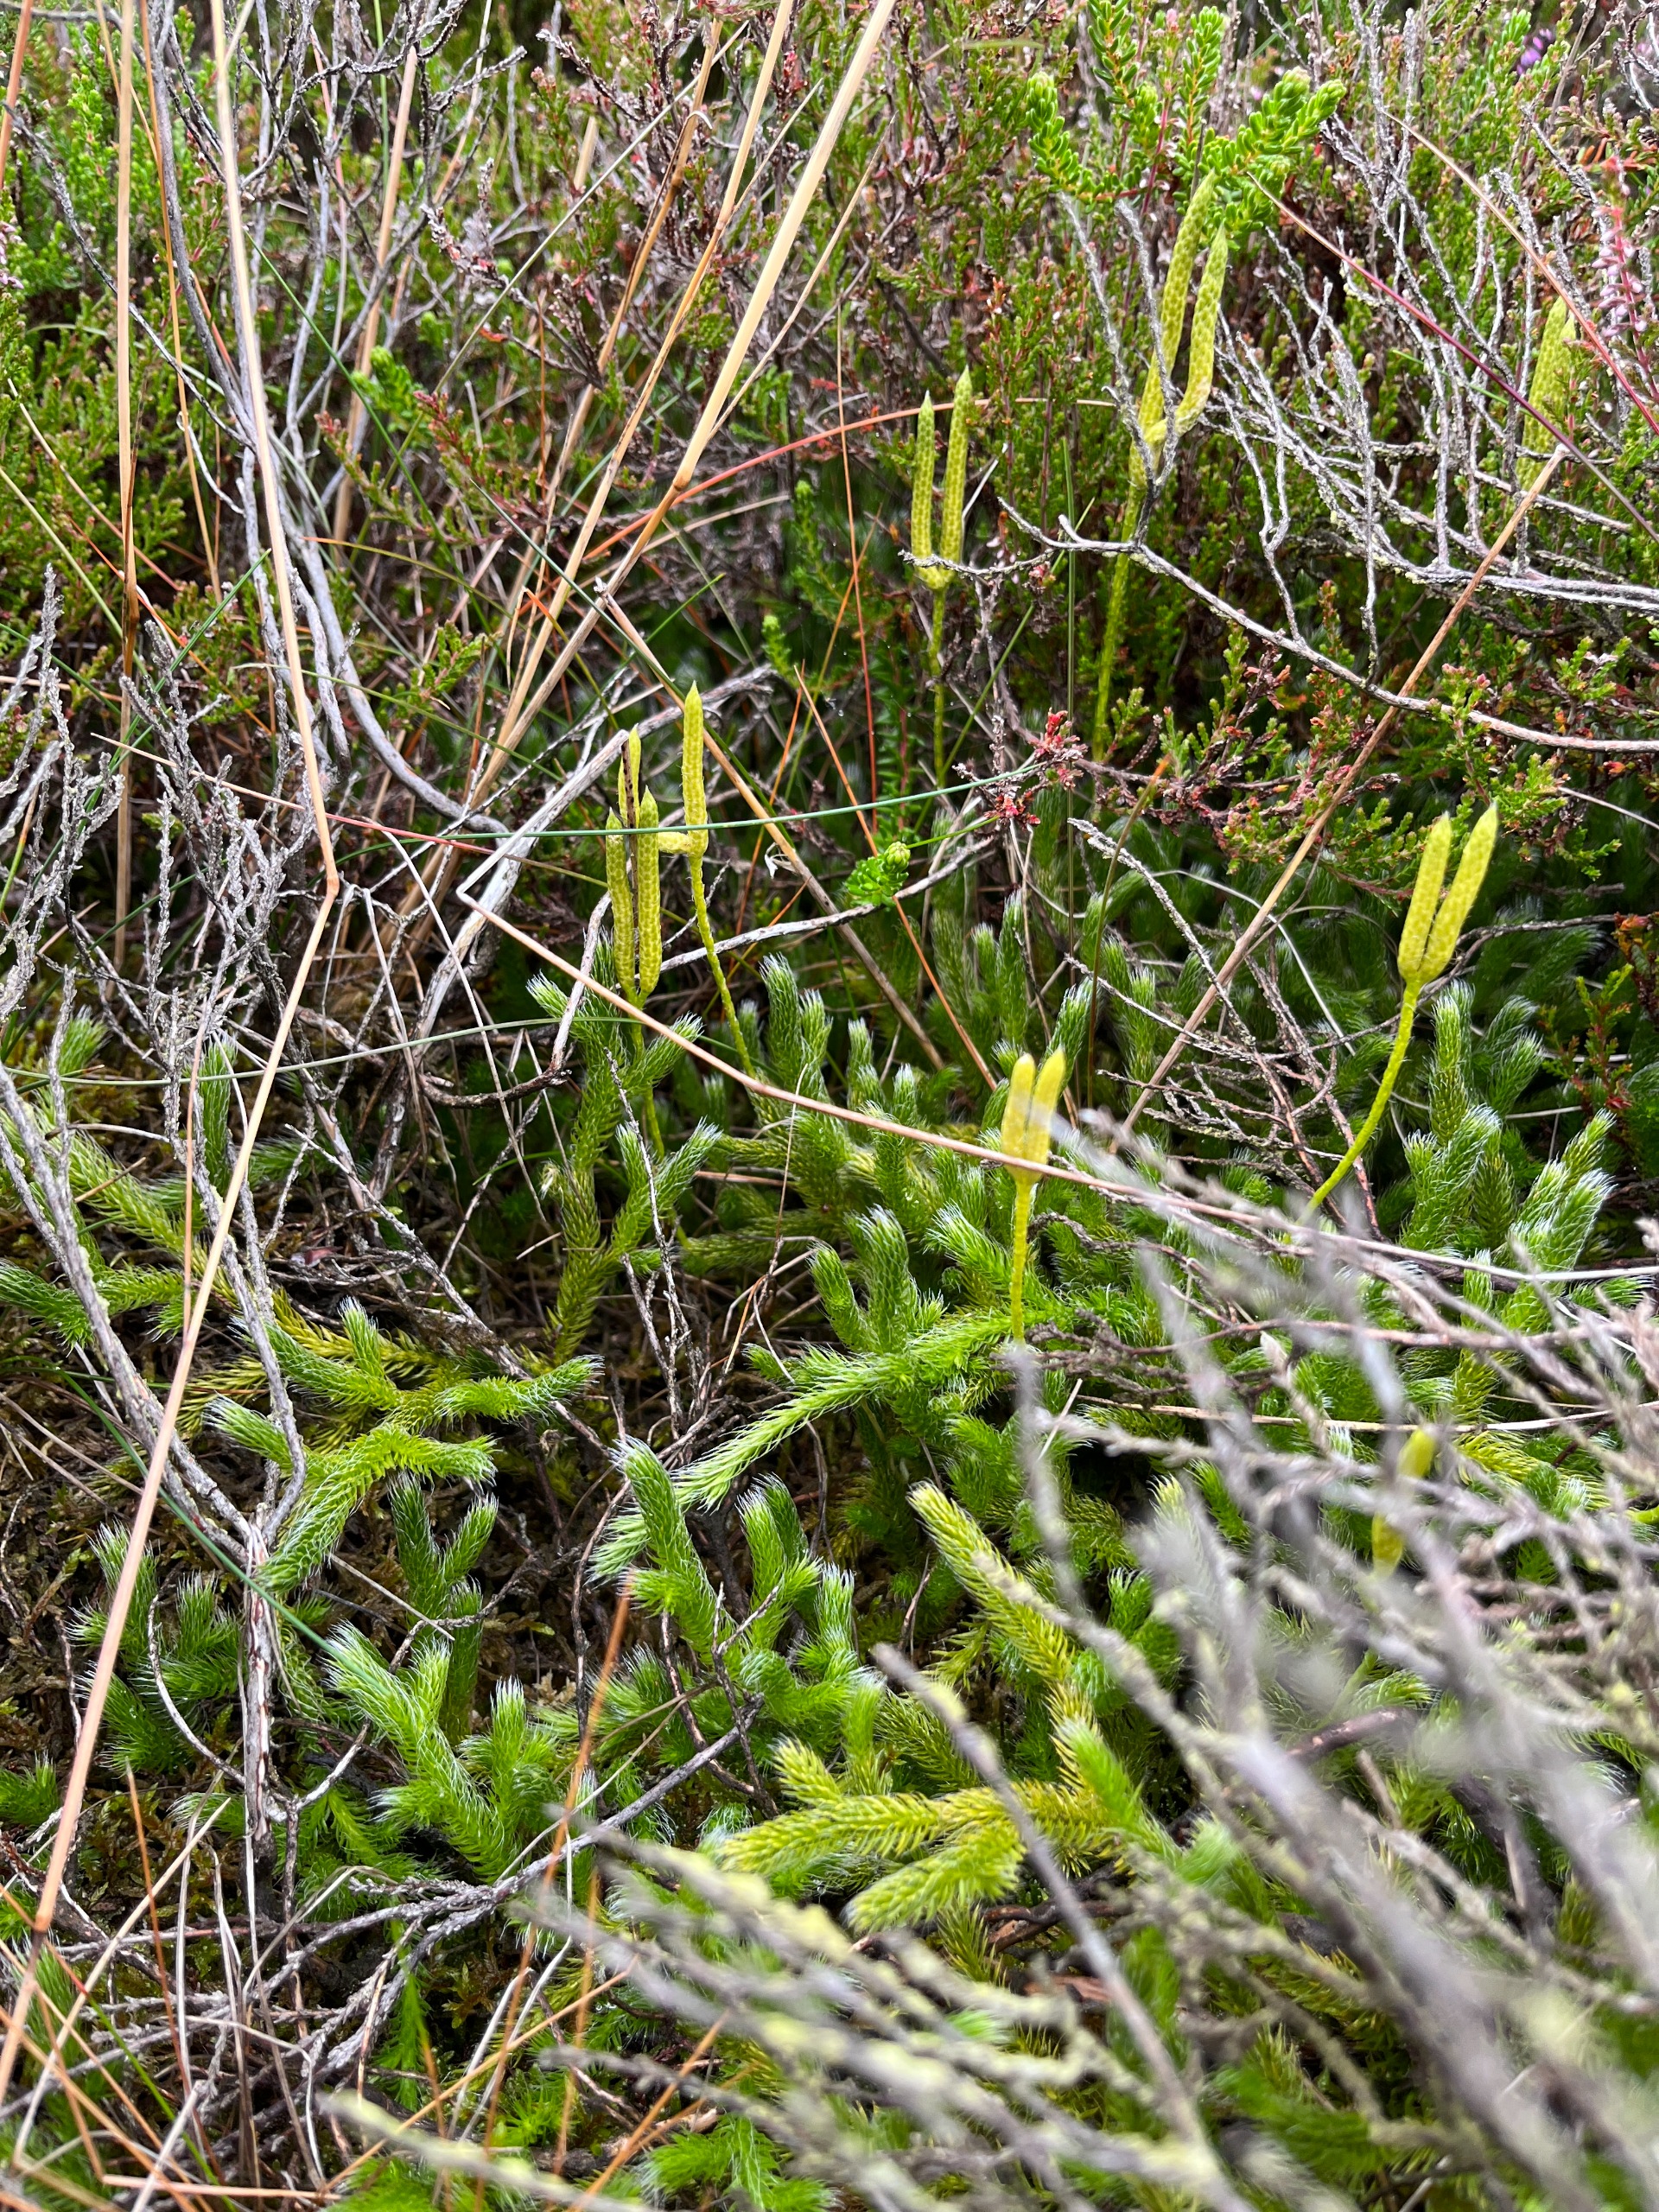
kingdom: Plantae
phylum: Tracheophyta
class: Lycopodiopsida
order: Lycopodiales
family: Lycopodiaceae
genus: Lycopodium
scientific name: Lycopodium clavatum
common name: Almindelig ulvefod
